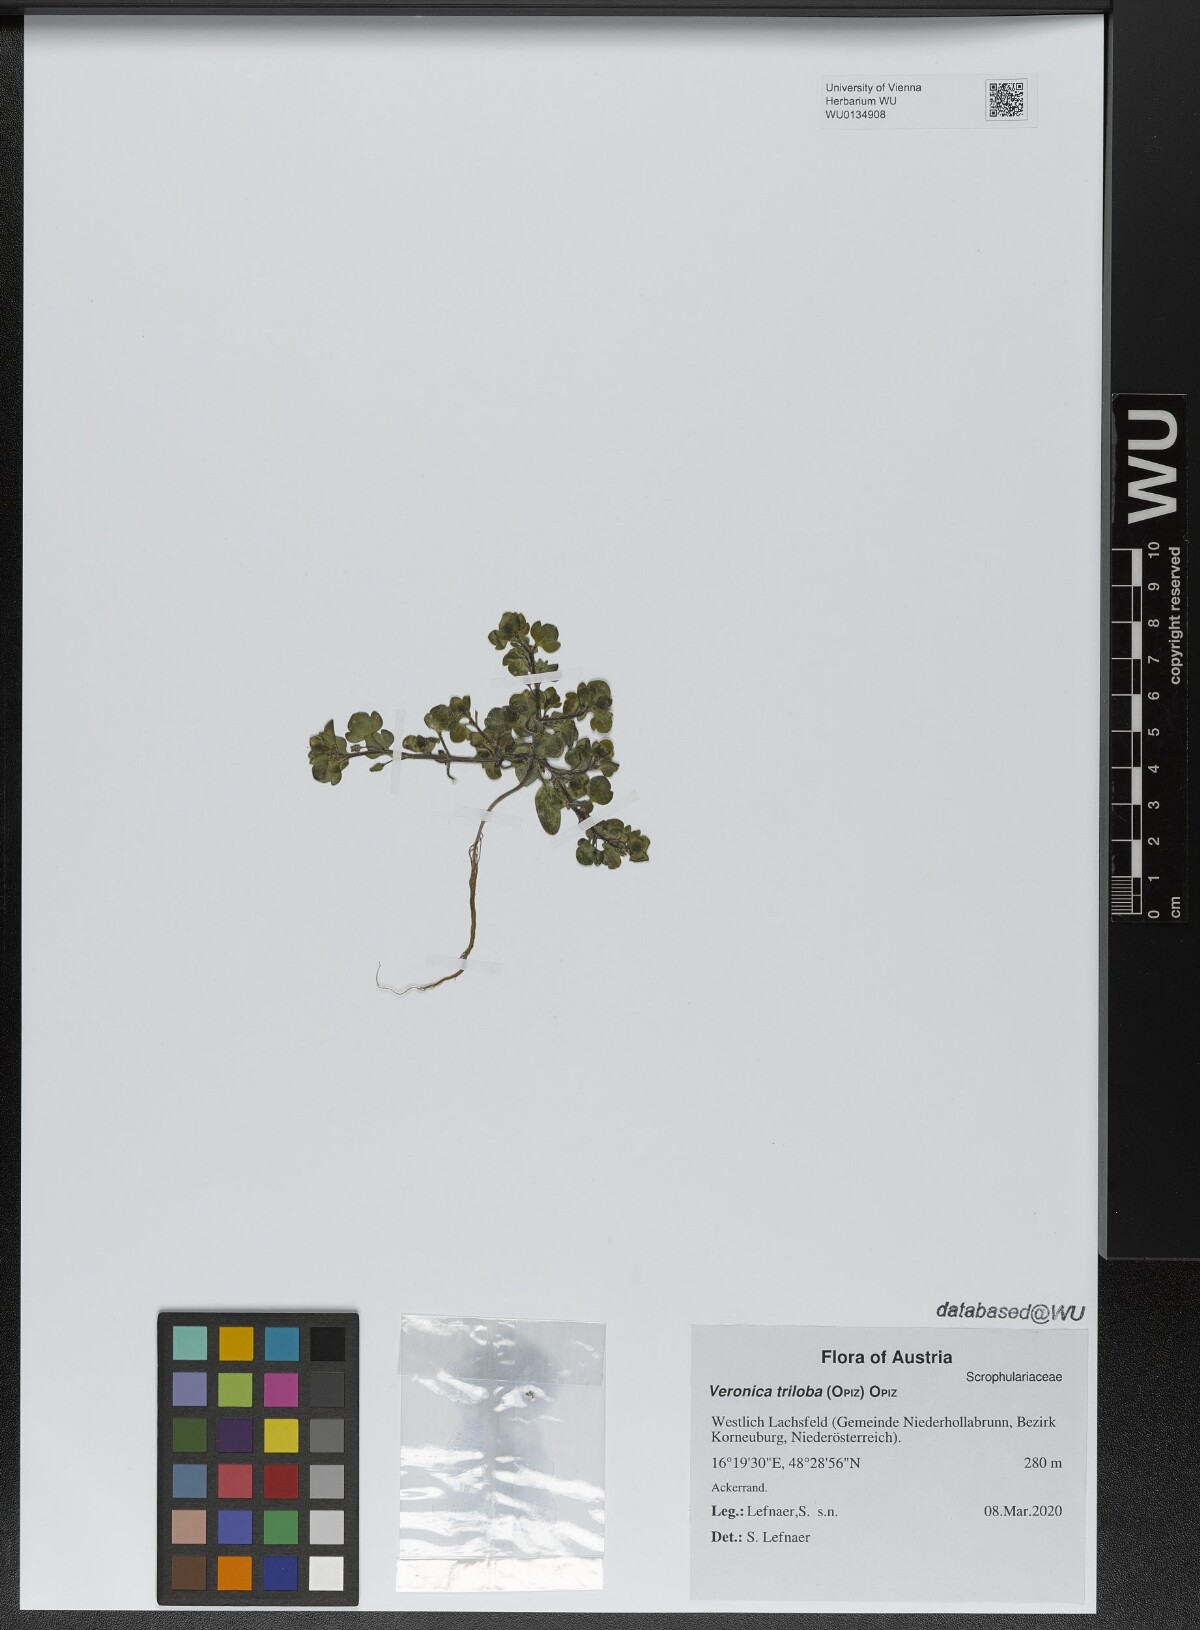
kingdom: Plantae
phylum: Tracheophyta
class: Magnoliopsida
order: Lamiales
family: Plantaginaceae
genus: Veronica
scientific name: Veronica triloba
